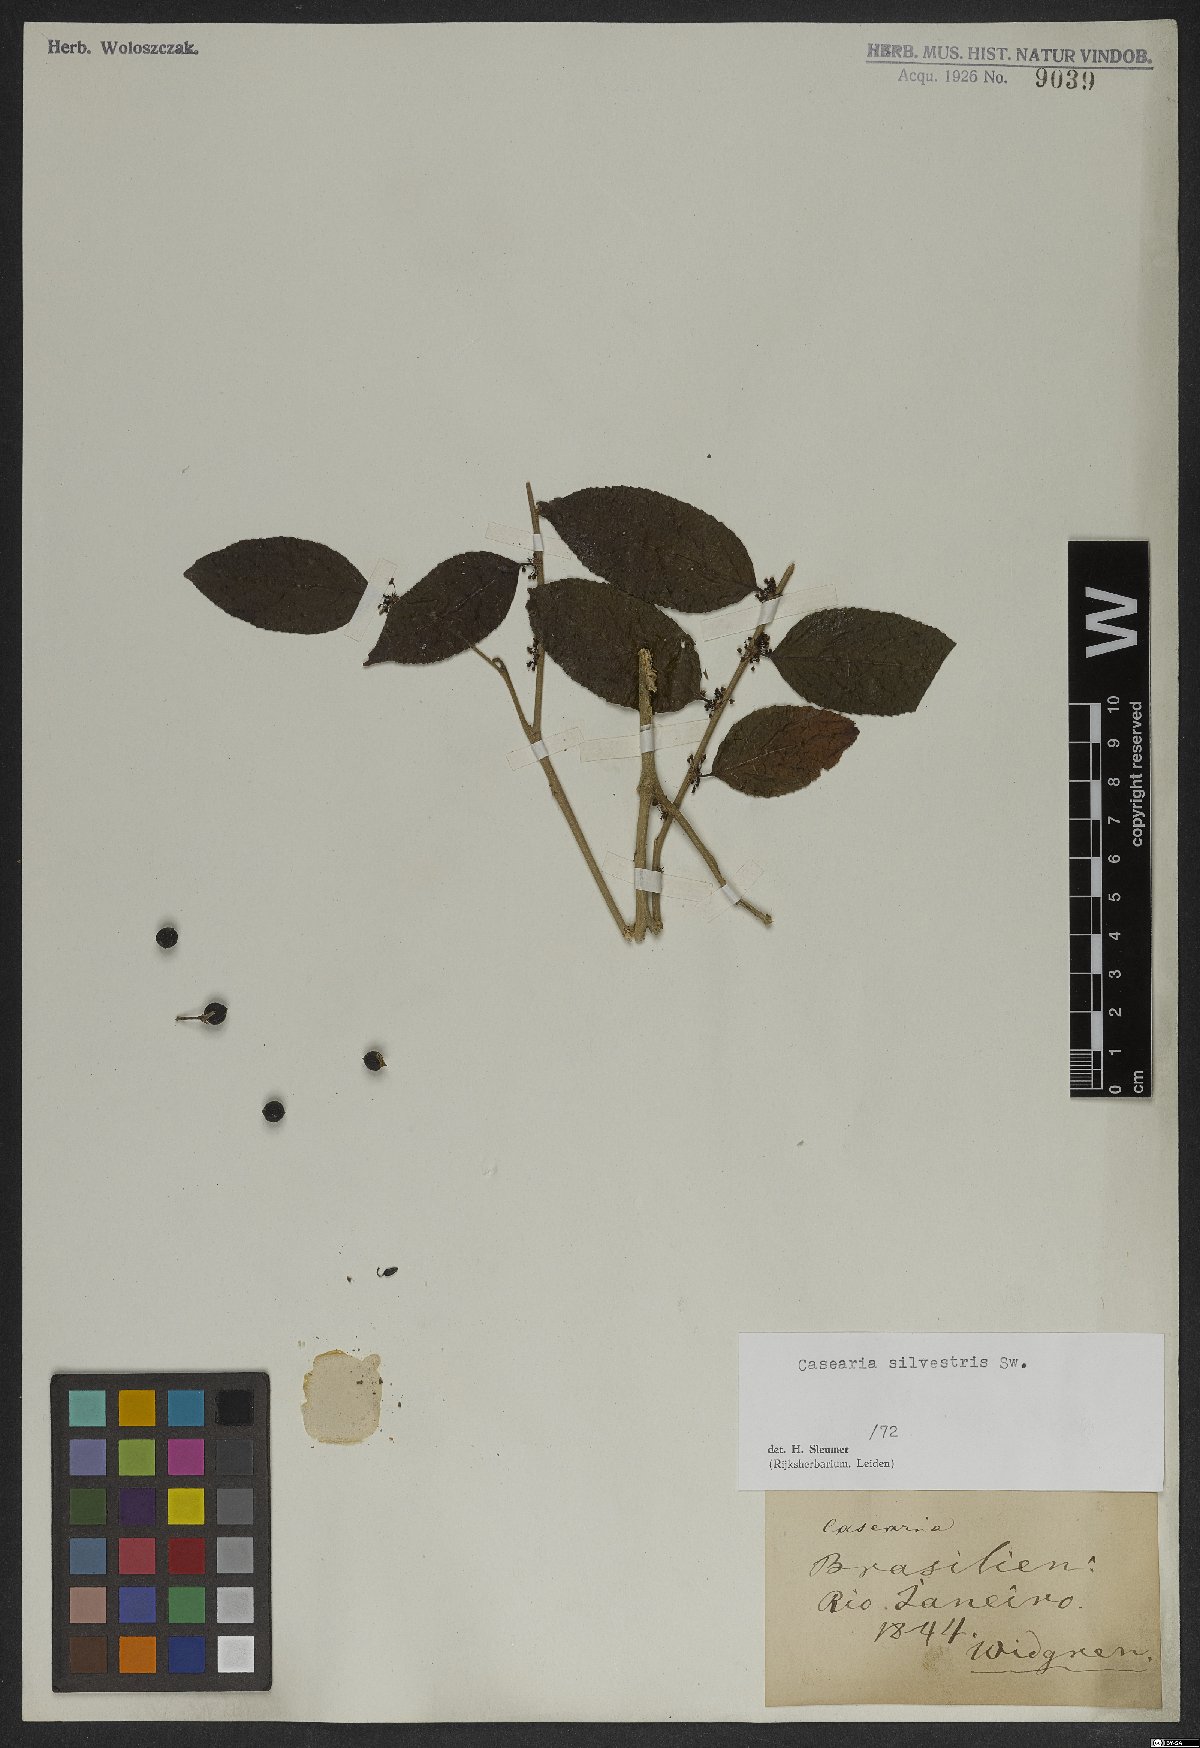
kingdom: Plantae
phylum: Tracheophyta
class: Magnoliopsida
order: Malpighiales
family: Salicaceae
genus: Casearia
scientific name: Casearia sylvestris
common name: Wild sage
